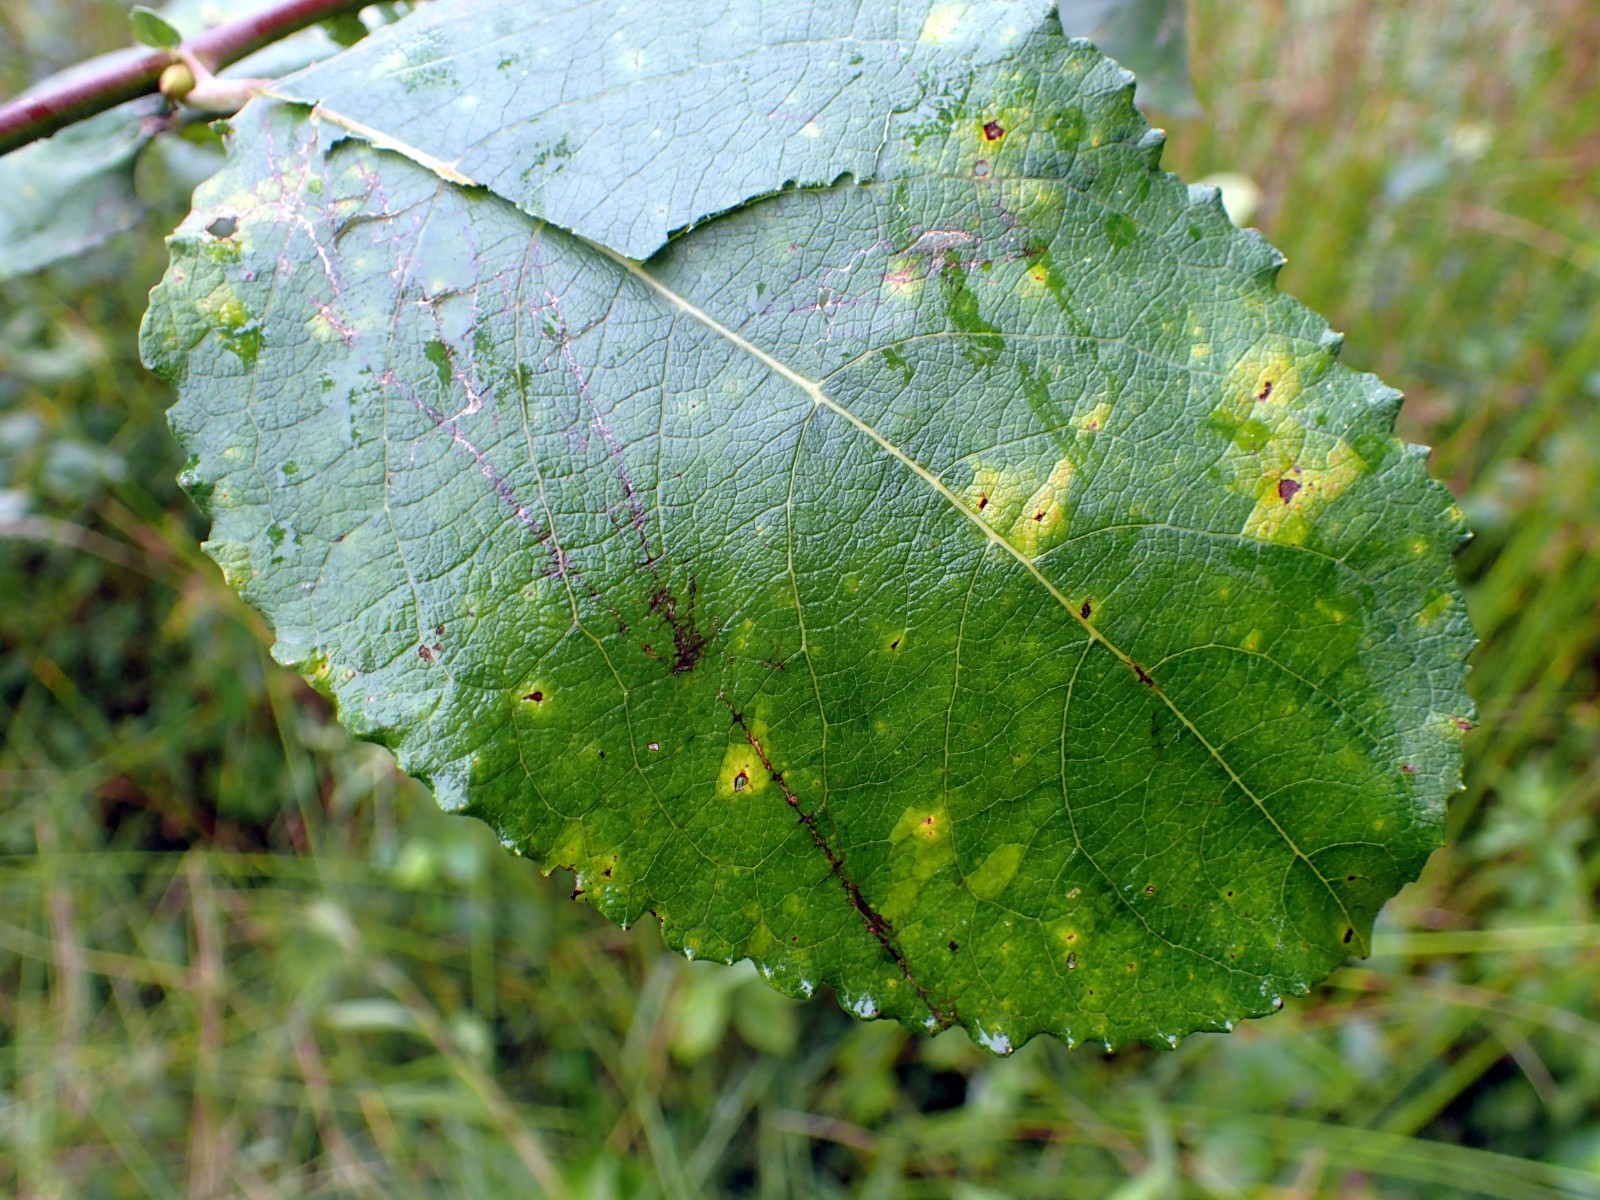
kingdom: Fungi
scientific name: Fungi
